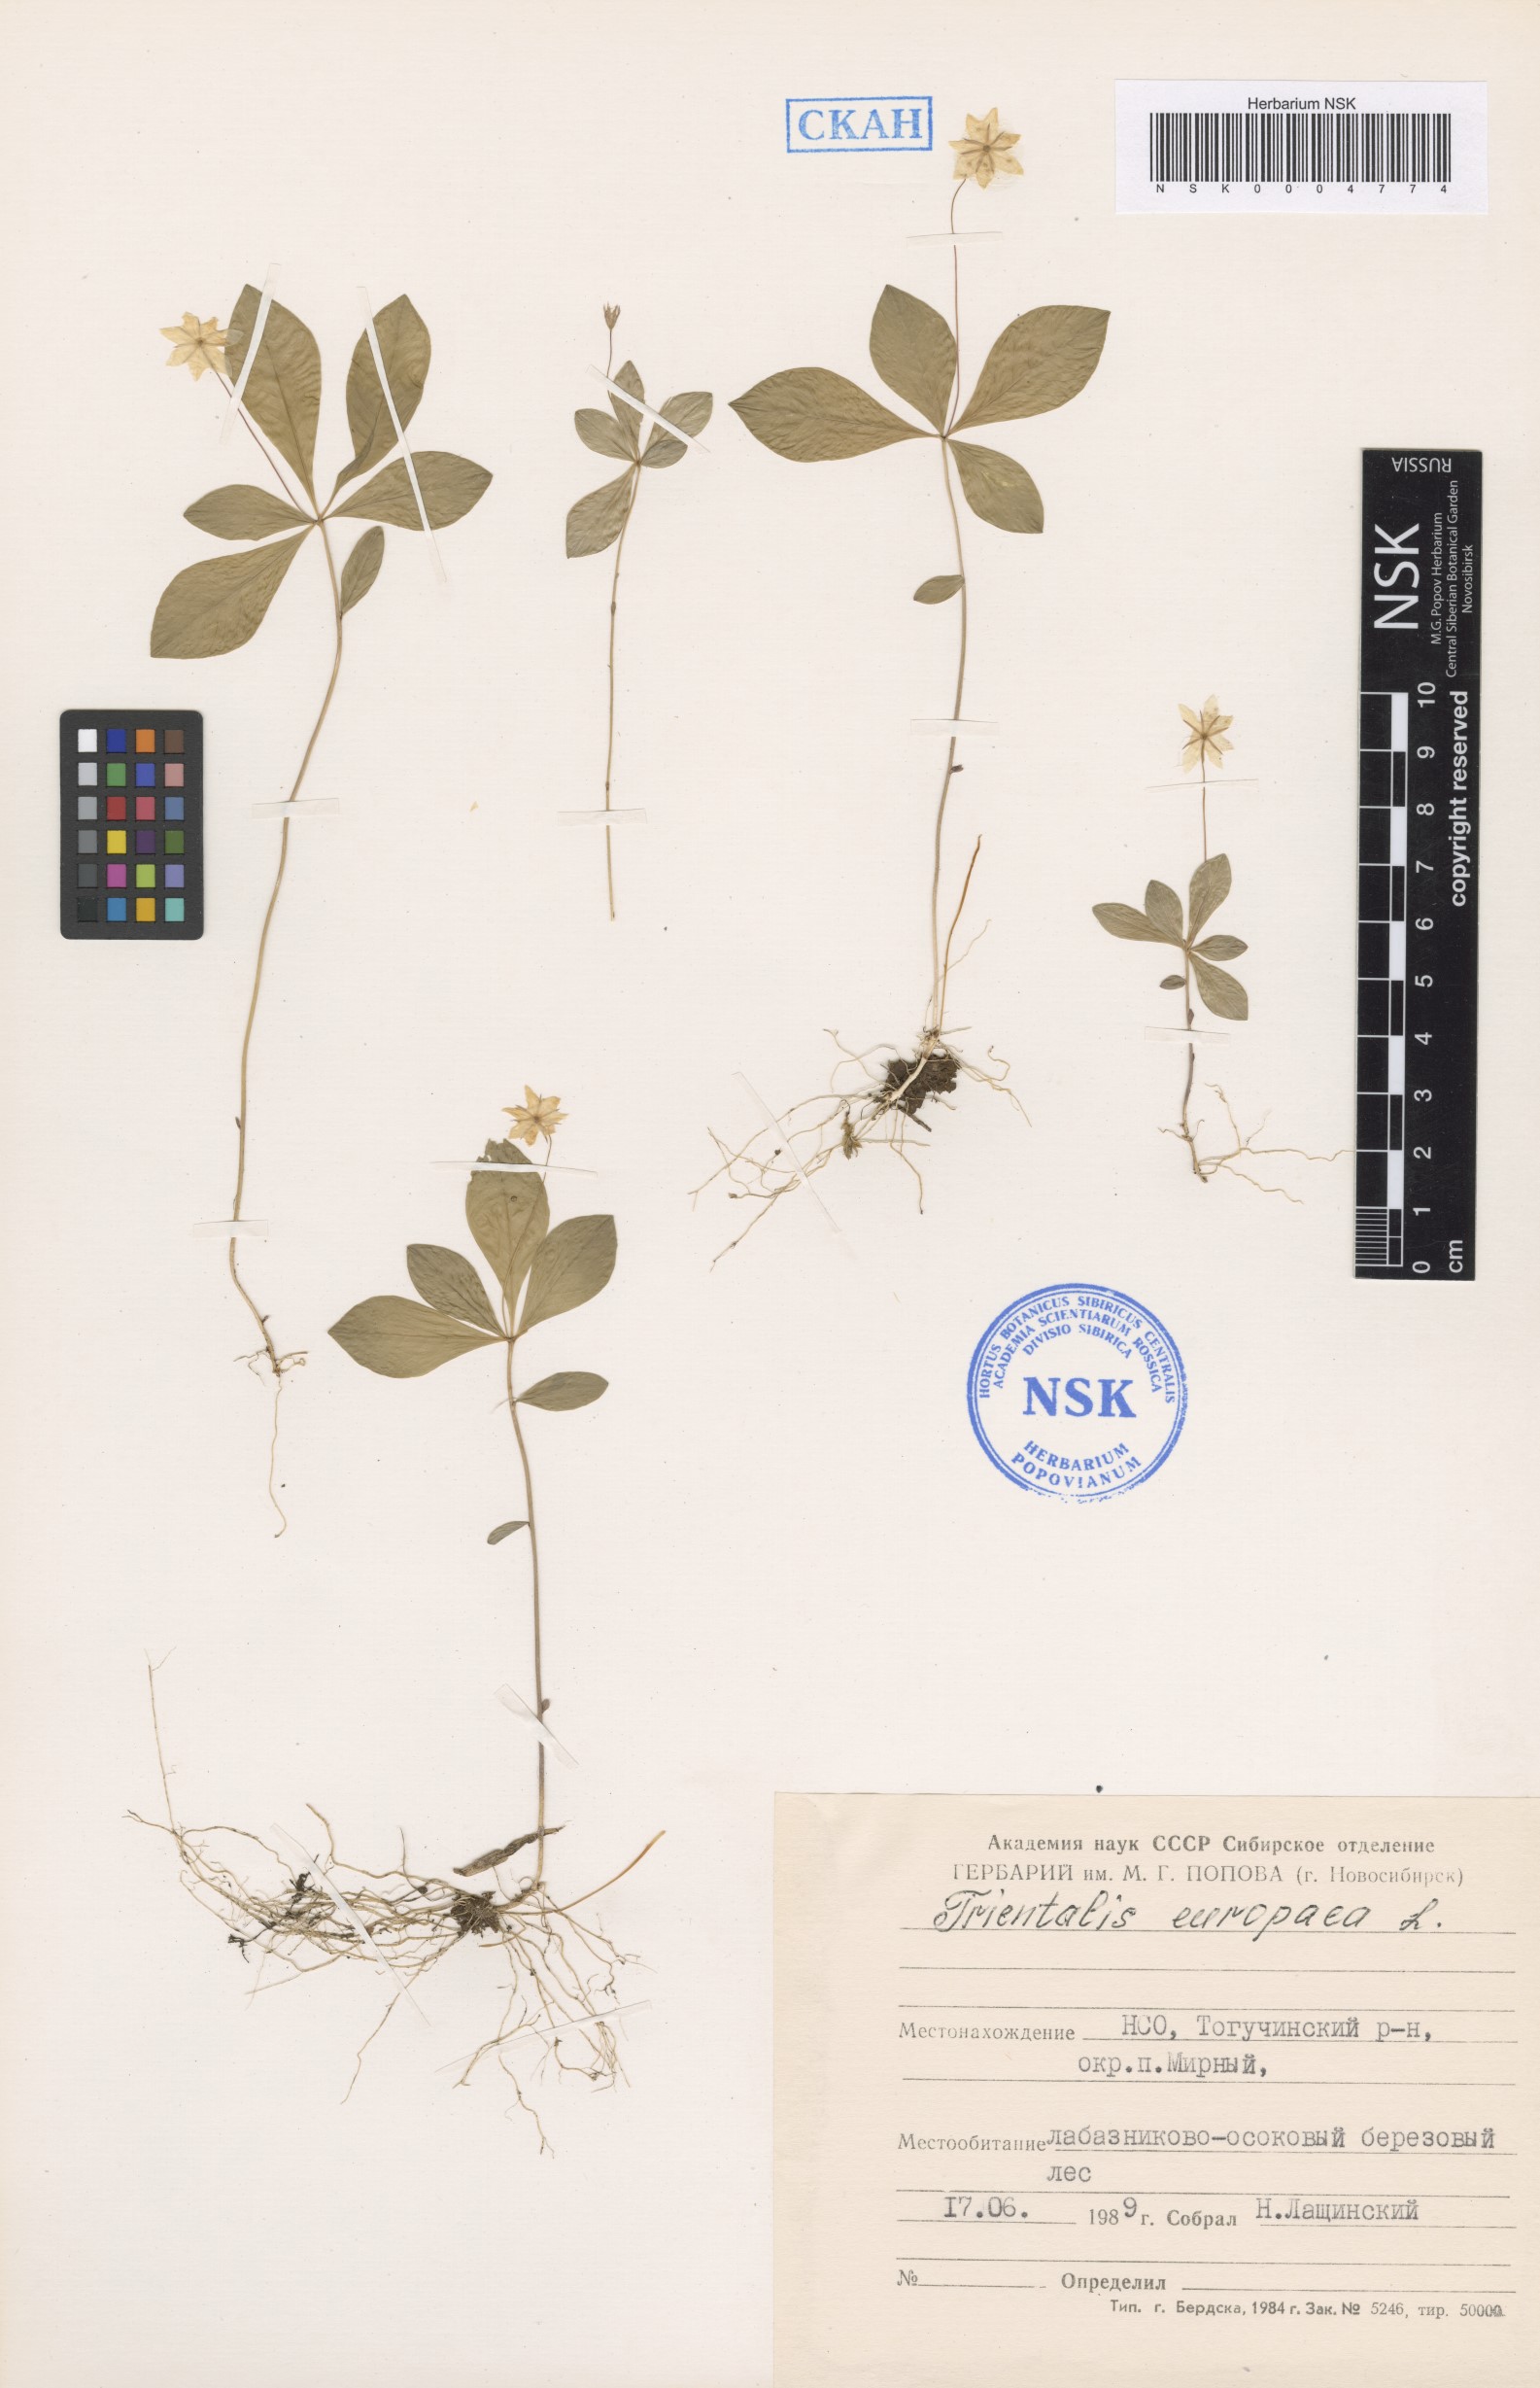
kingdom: Plantae
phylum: Tracheophyta
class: Magnoliopsida
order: Ericales
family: Primulaceae
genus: Lysimachia
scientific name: Lysimachia europaea
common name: Arctic starflower
